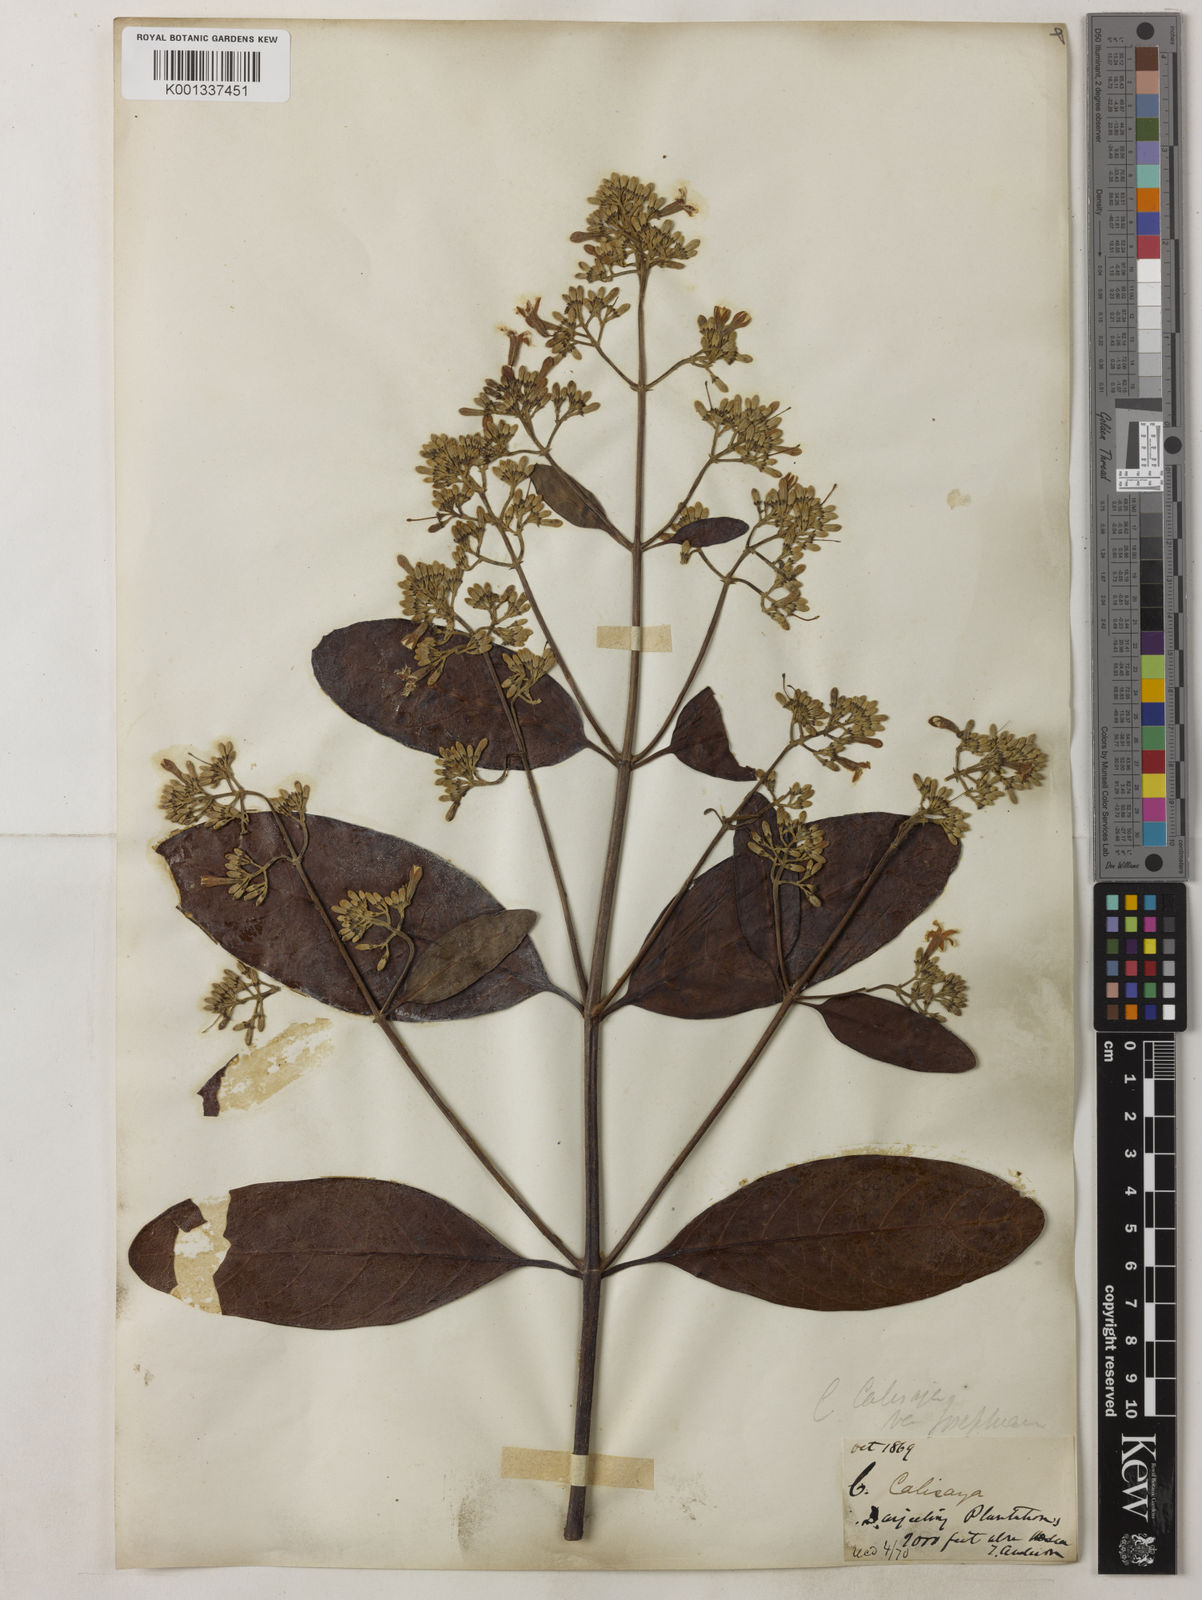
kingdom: Plantae
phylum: Tracheophyta
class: Magnoliopsida
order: Gentianales
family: Rubiaceae
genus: Cinchona
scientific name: Cinchona calisaya
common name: Ledgerbark
